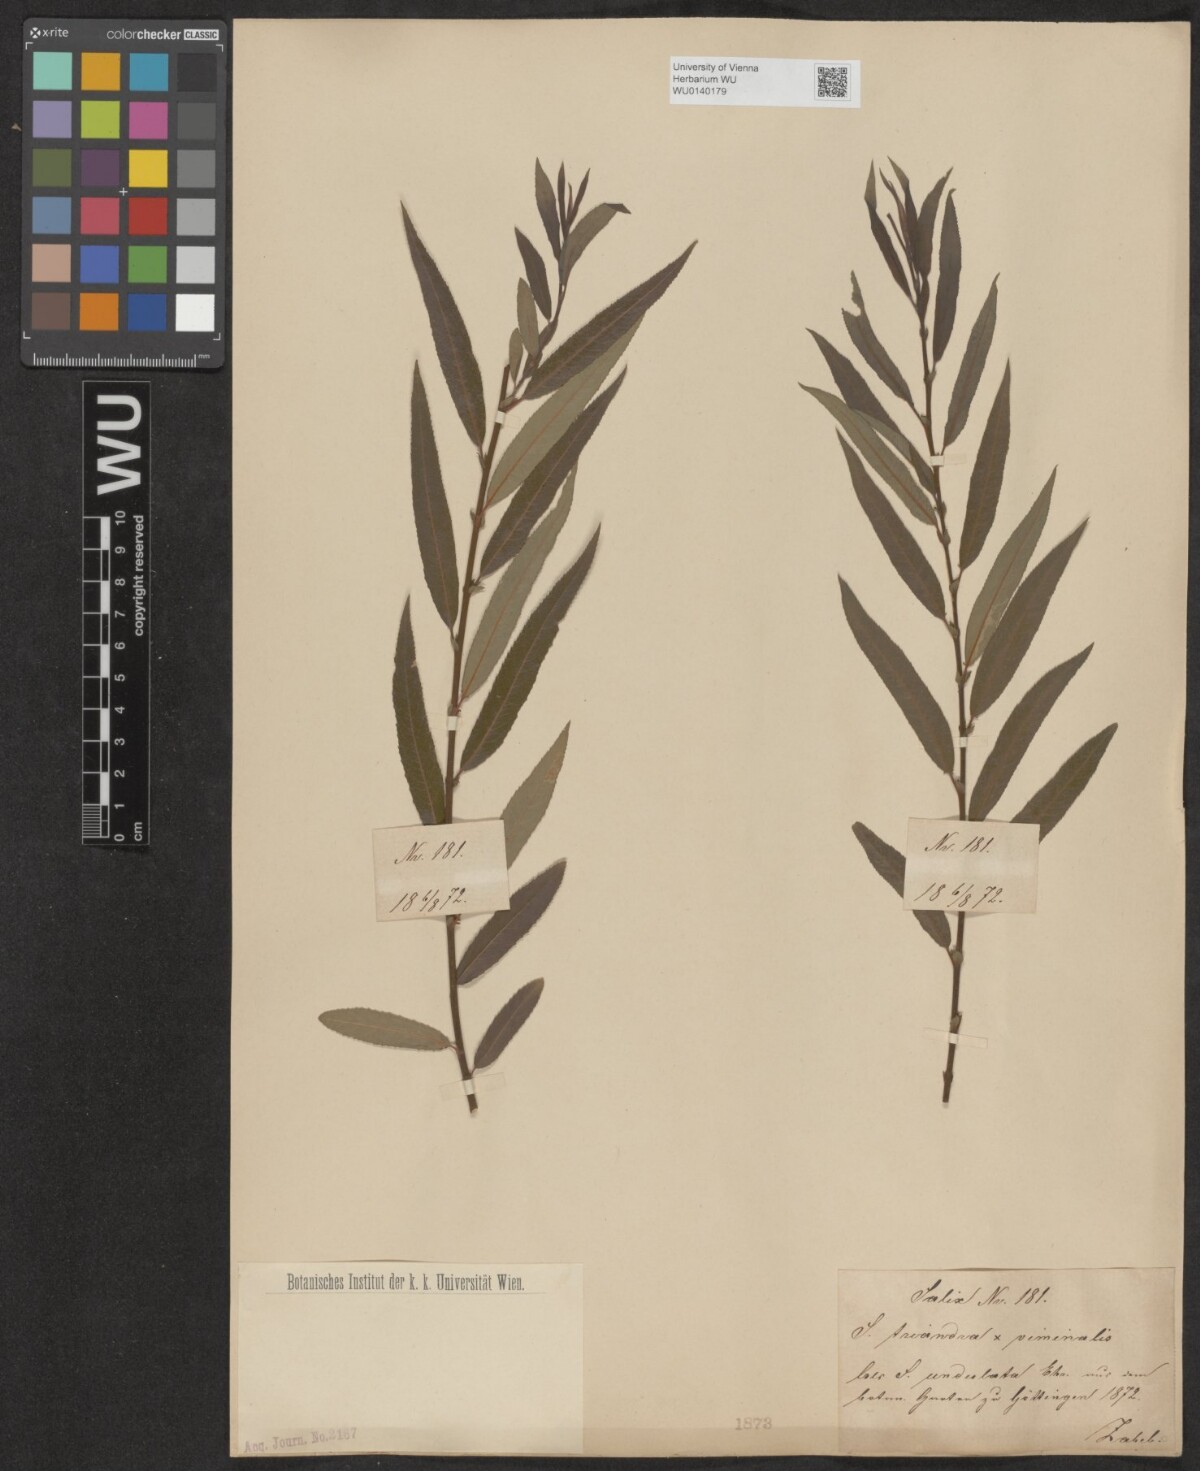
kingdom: Plantae
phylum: Tracheophyta
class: Magnoliopsida
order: Malpighiales
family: Salicaceae
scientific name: Salicaceae
